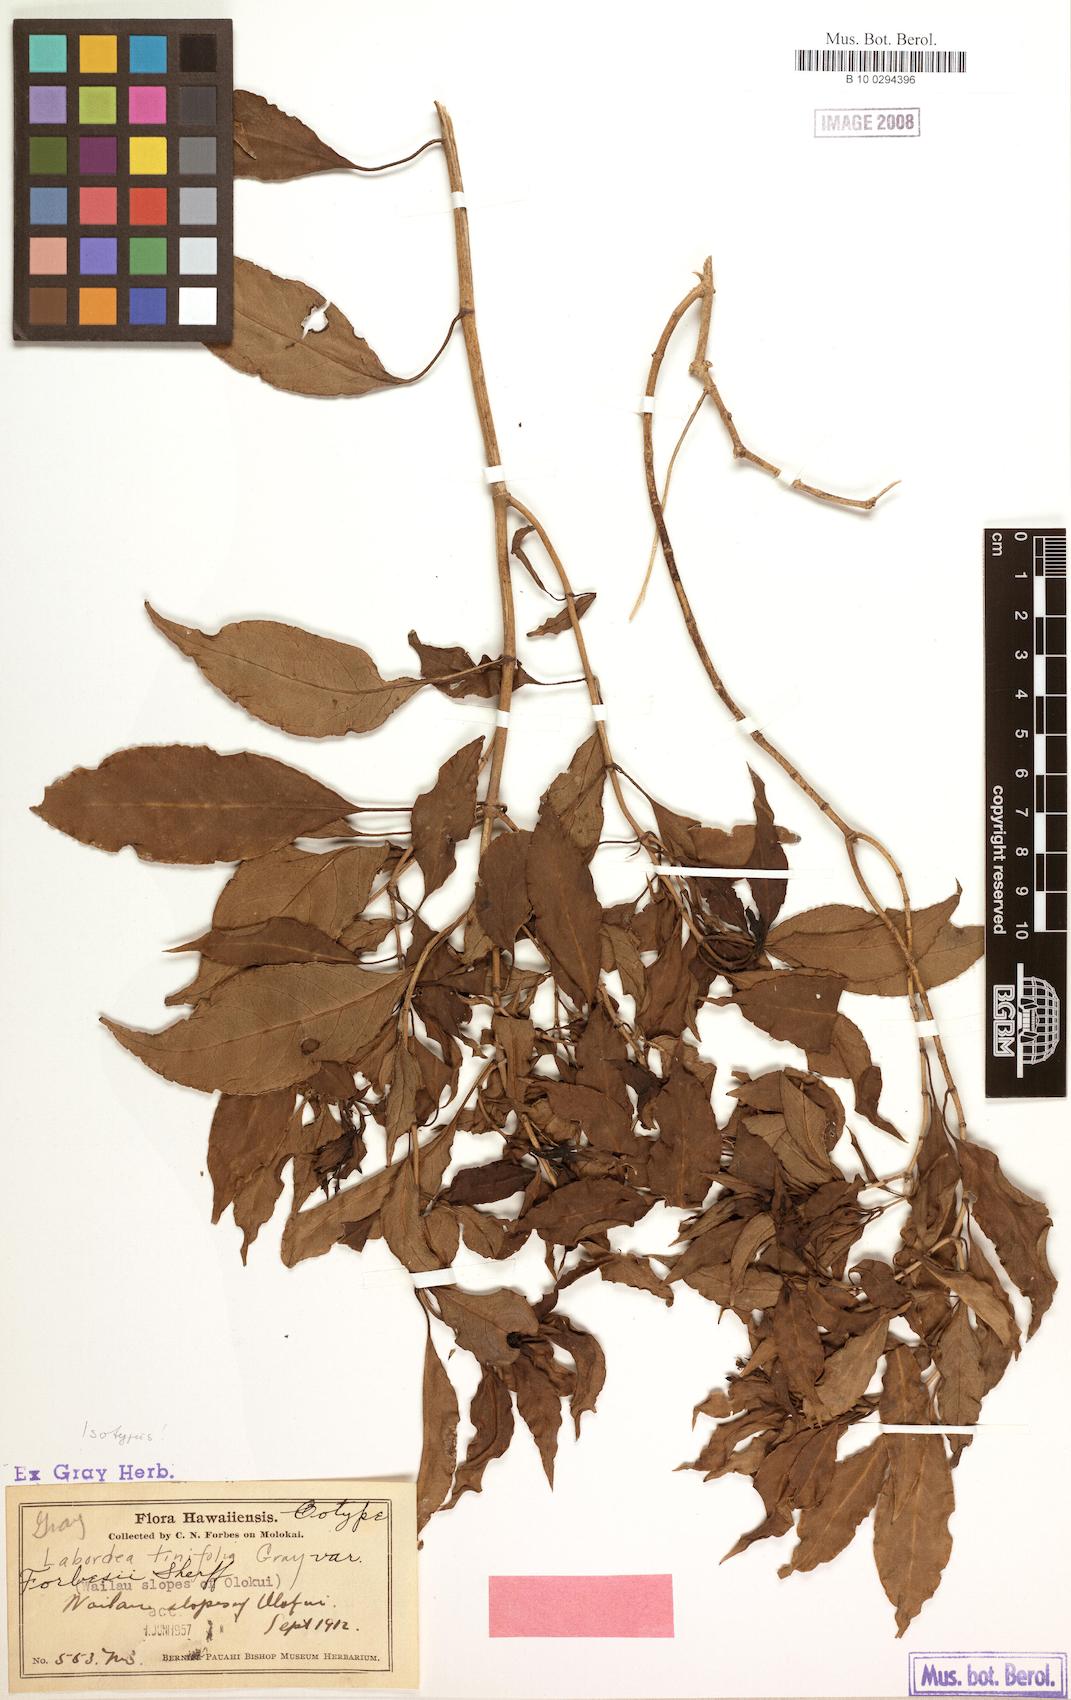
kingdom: Plantae
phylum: Tracheophyta
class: Magnoliopsida
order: Gentianales
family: Loganiaceae
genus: Geniostoma
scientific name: Geniostoma tinifolium
